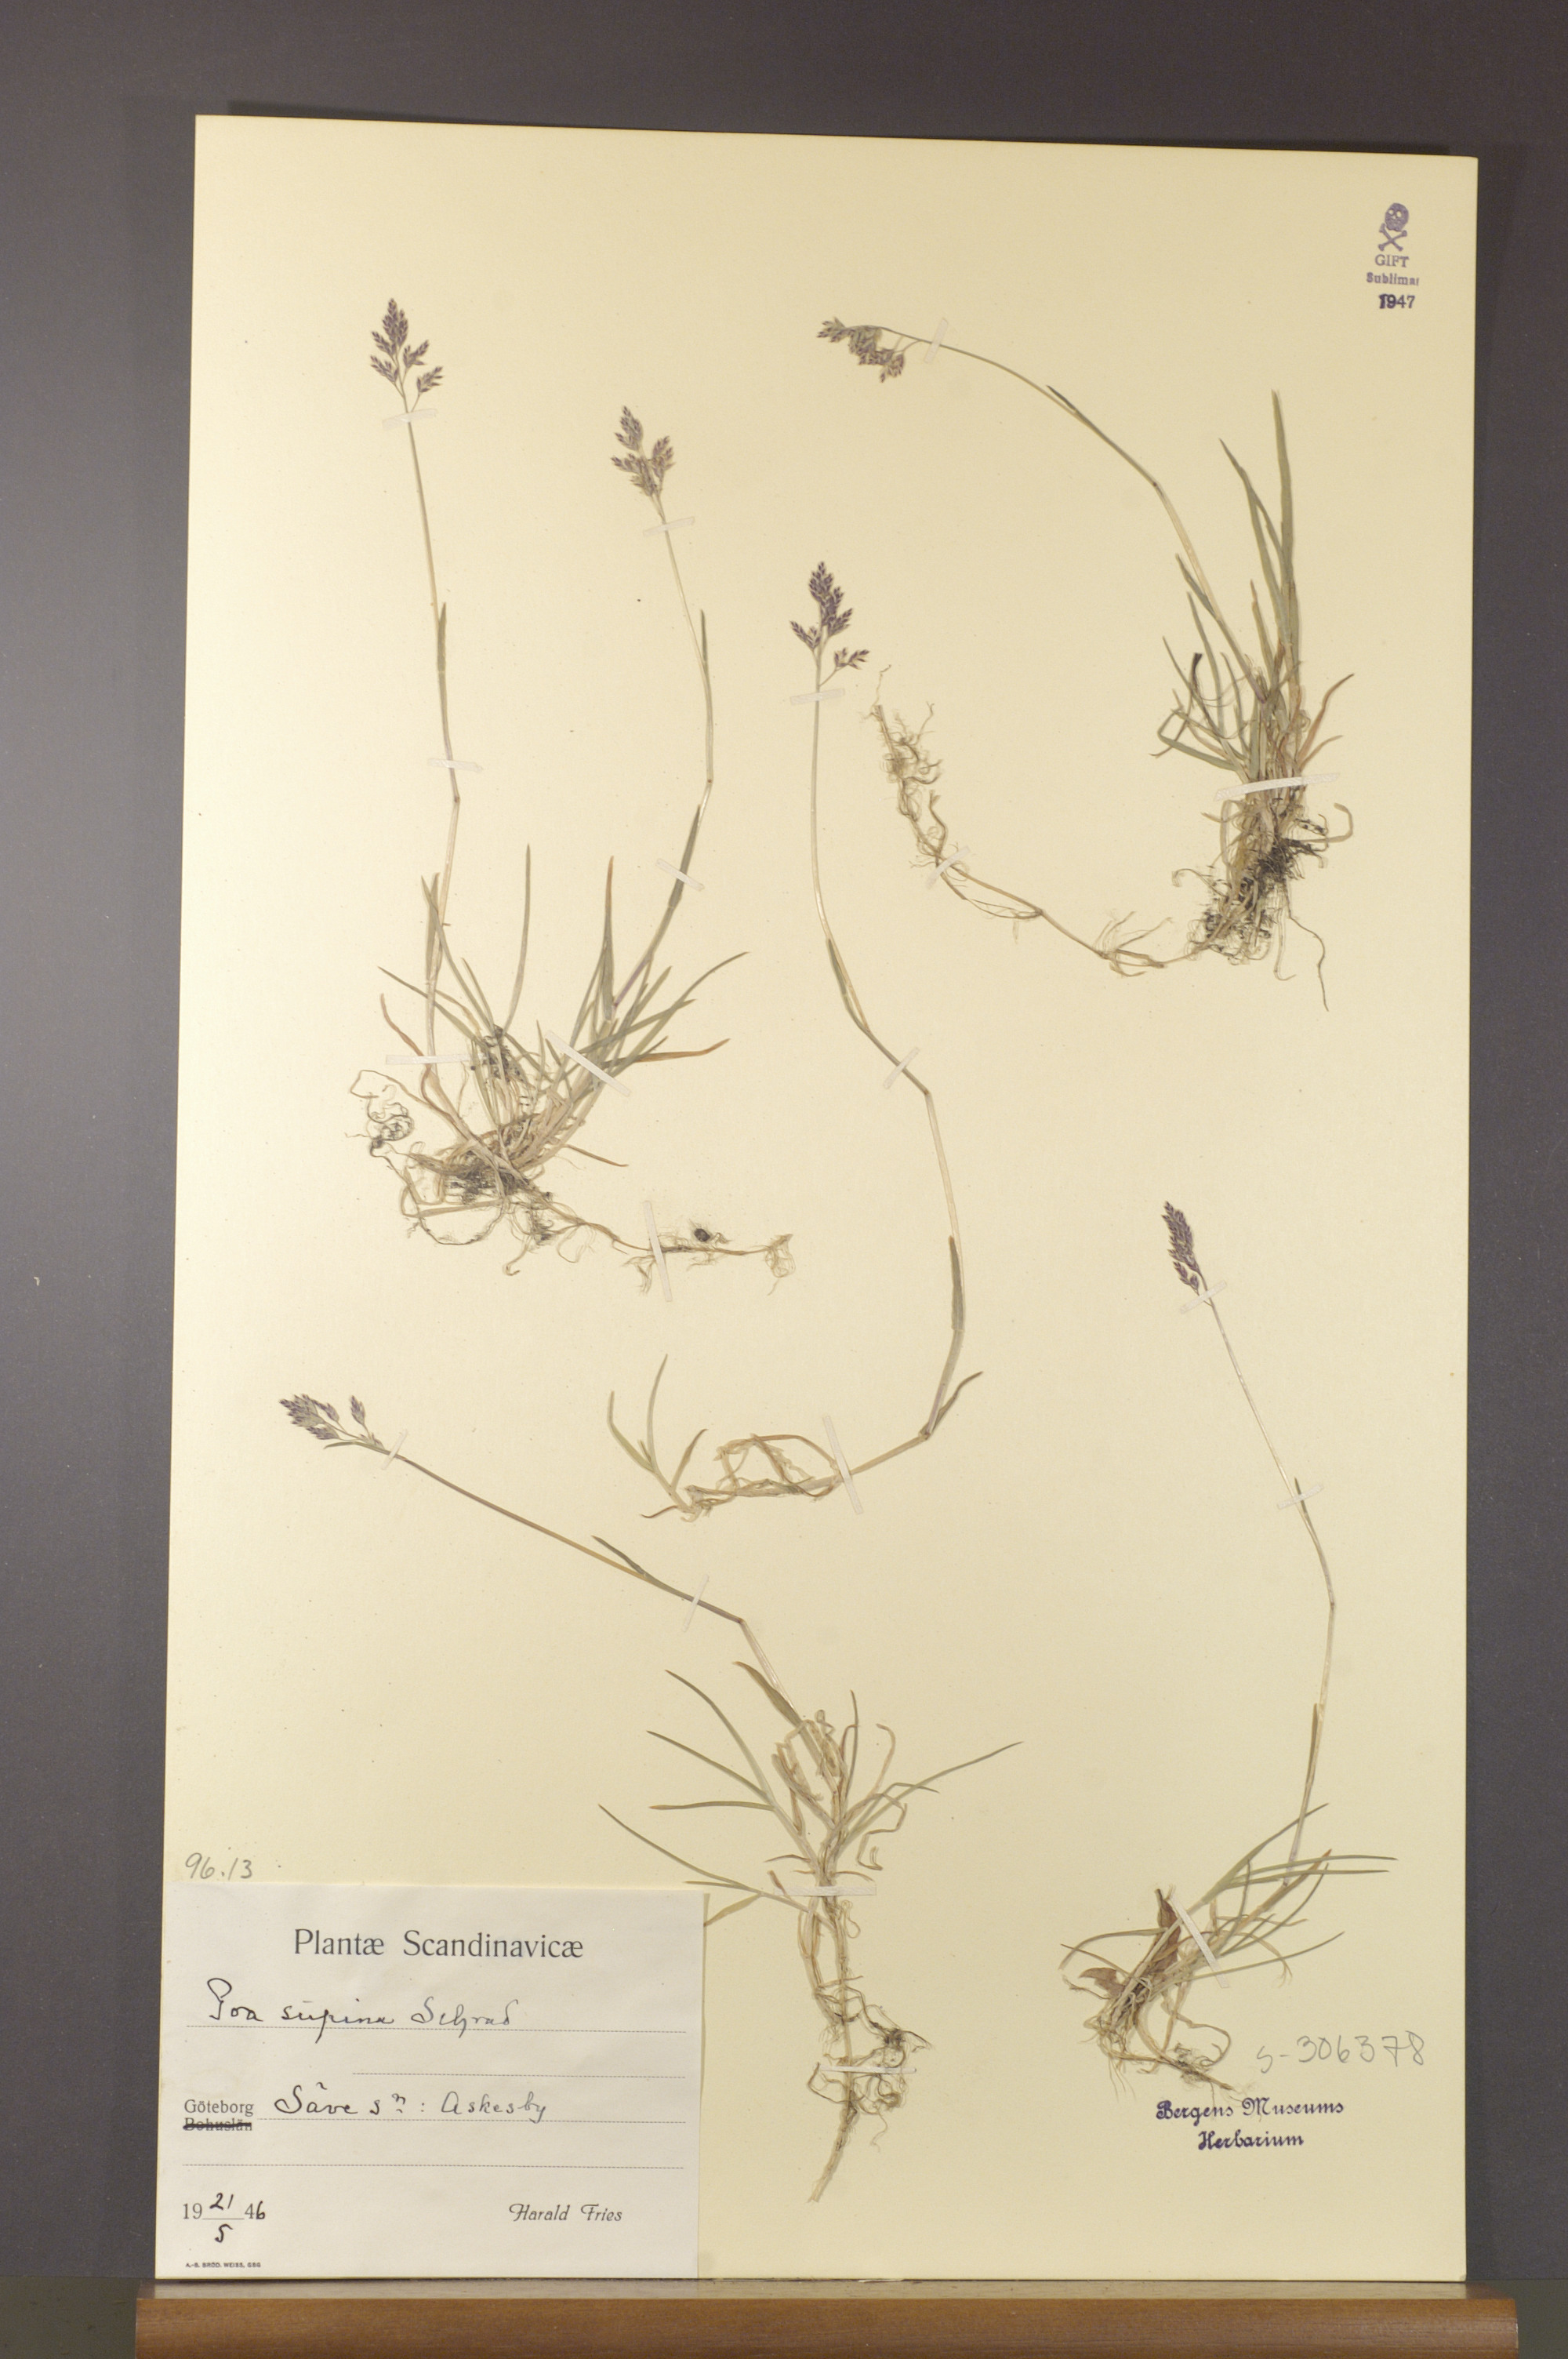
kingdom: Plantae
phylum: Tracheophyta
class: Liliopsida
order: Poales
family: Poaceae
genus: Poa
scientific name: Poa supina
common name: Supina bluegrass
